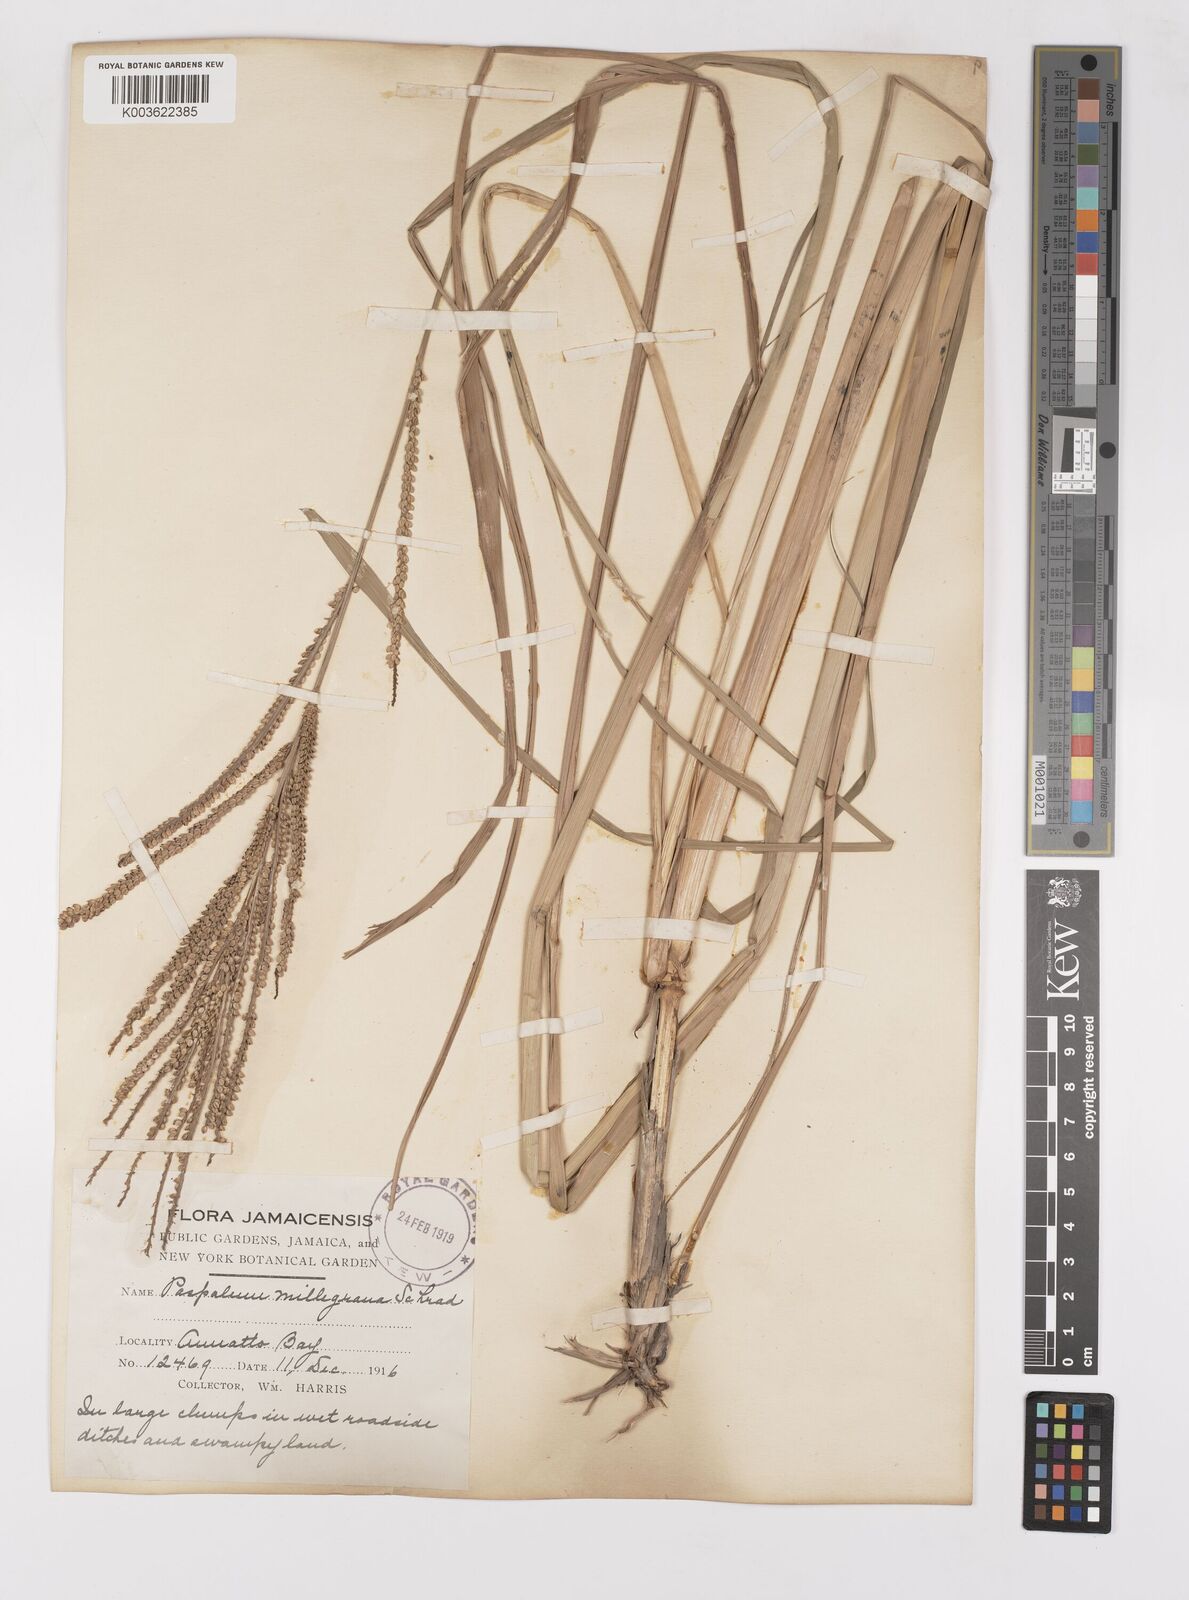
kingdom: Plantae
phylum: Tracheophyta
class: Liliopsida
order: Poales
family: Poaceae
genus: Paspalum
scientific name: Paspalum millegranum
